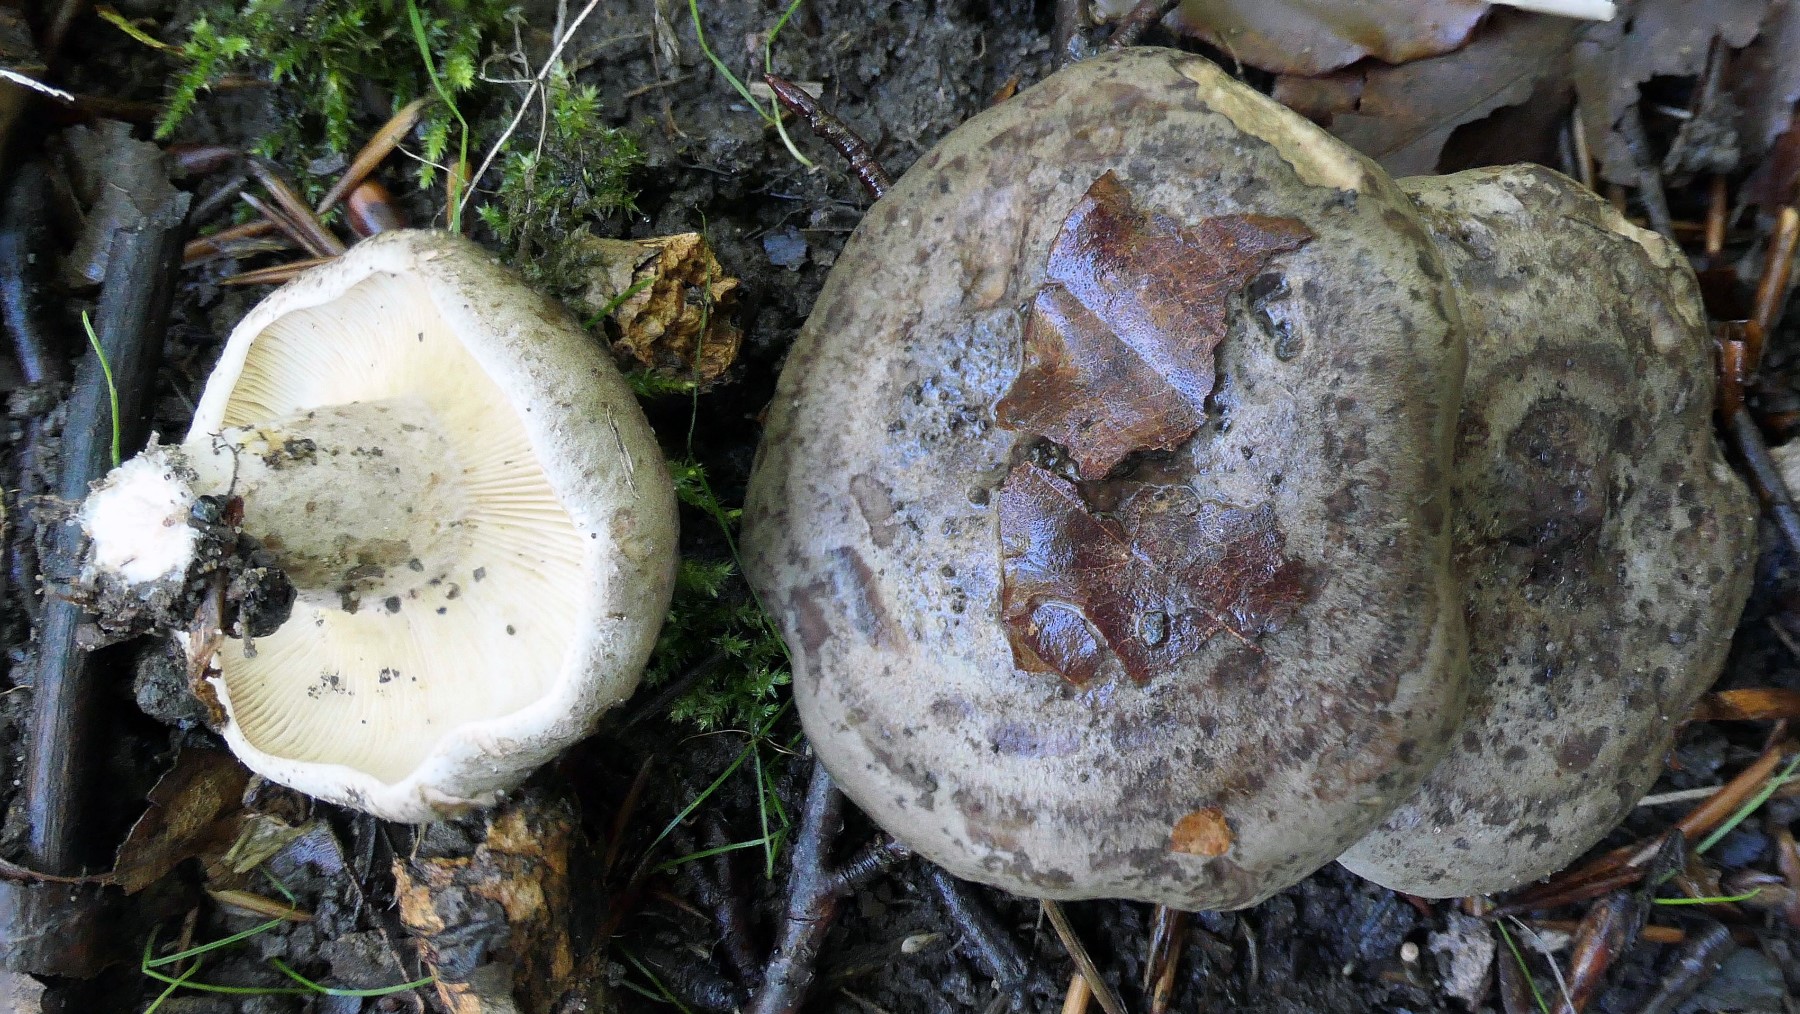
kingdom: Fungi
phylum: Basidiomycota
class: Agaricomycetes
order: Russulales
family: Russulaceae
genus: Lactarius
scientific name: Lactarius blennius
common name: dråbeplettet mælkehat
